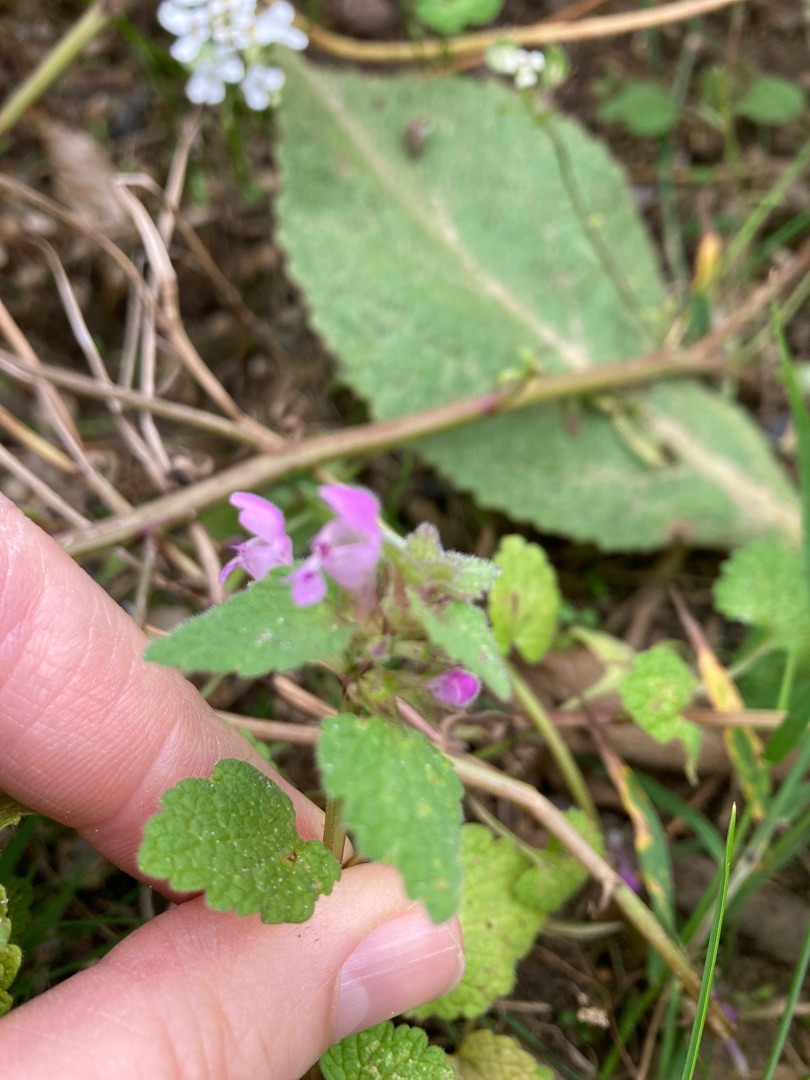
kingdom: Plantae
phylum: Tracheophyta
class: Magnoliopsida
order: Lamiales
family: Lamiaceae
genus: Lamium
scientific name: Lamium purpureum
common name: Rød tvetand
